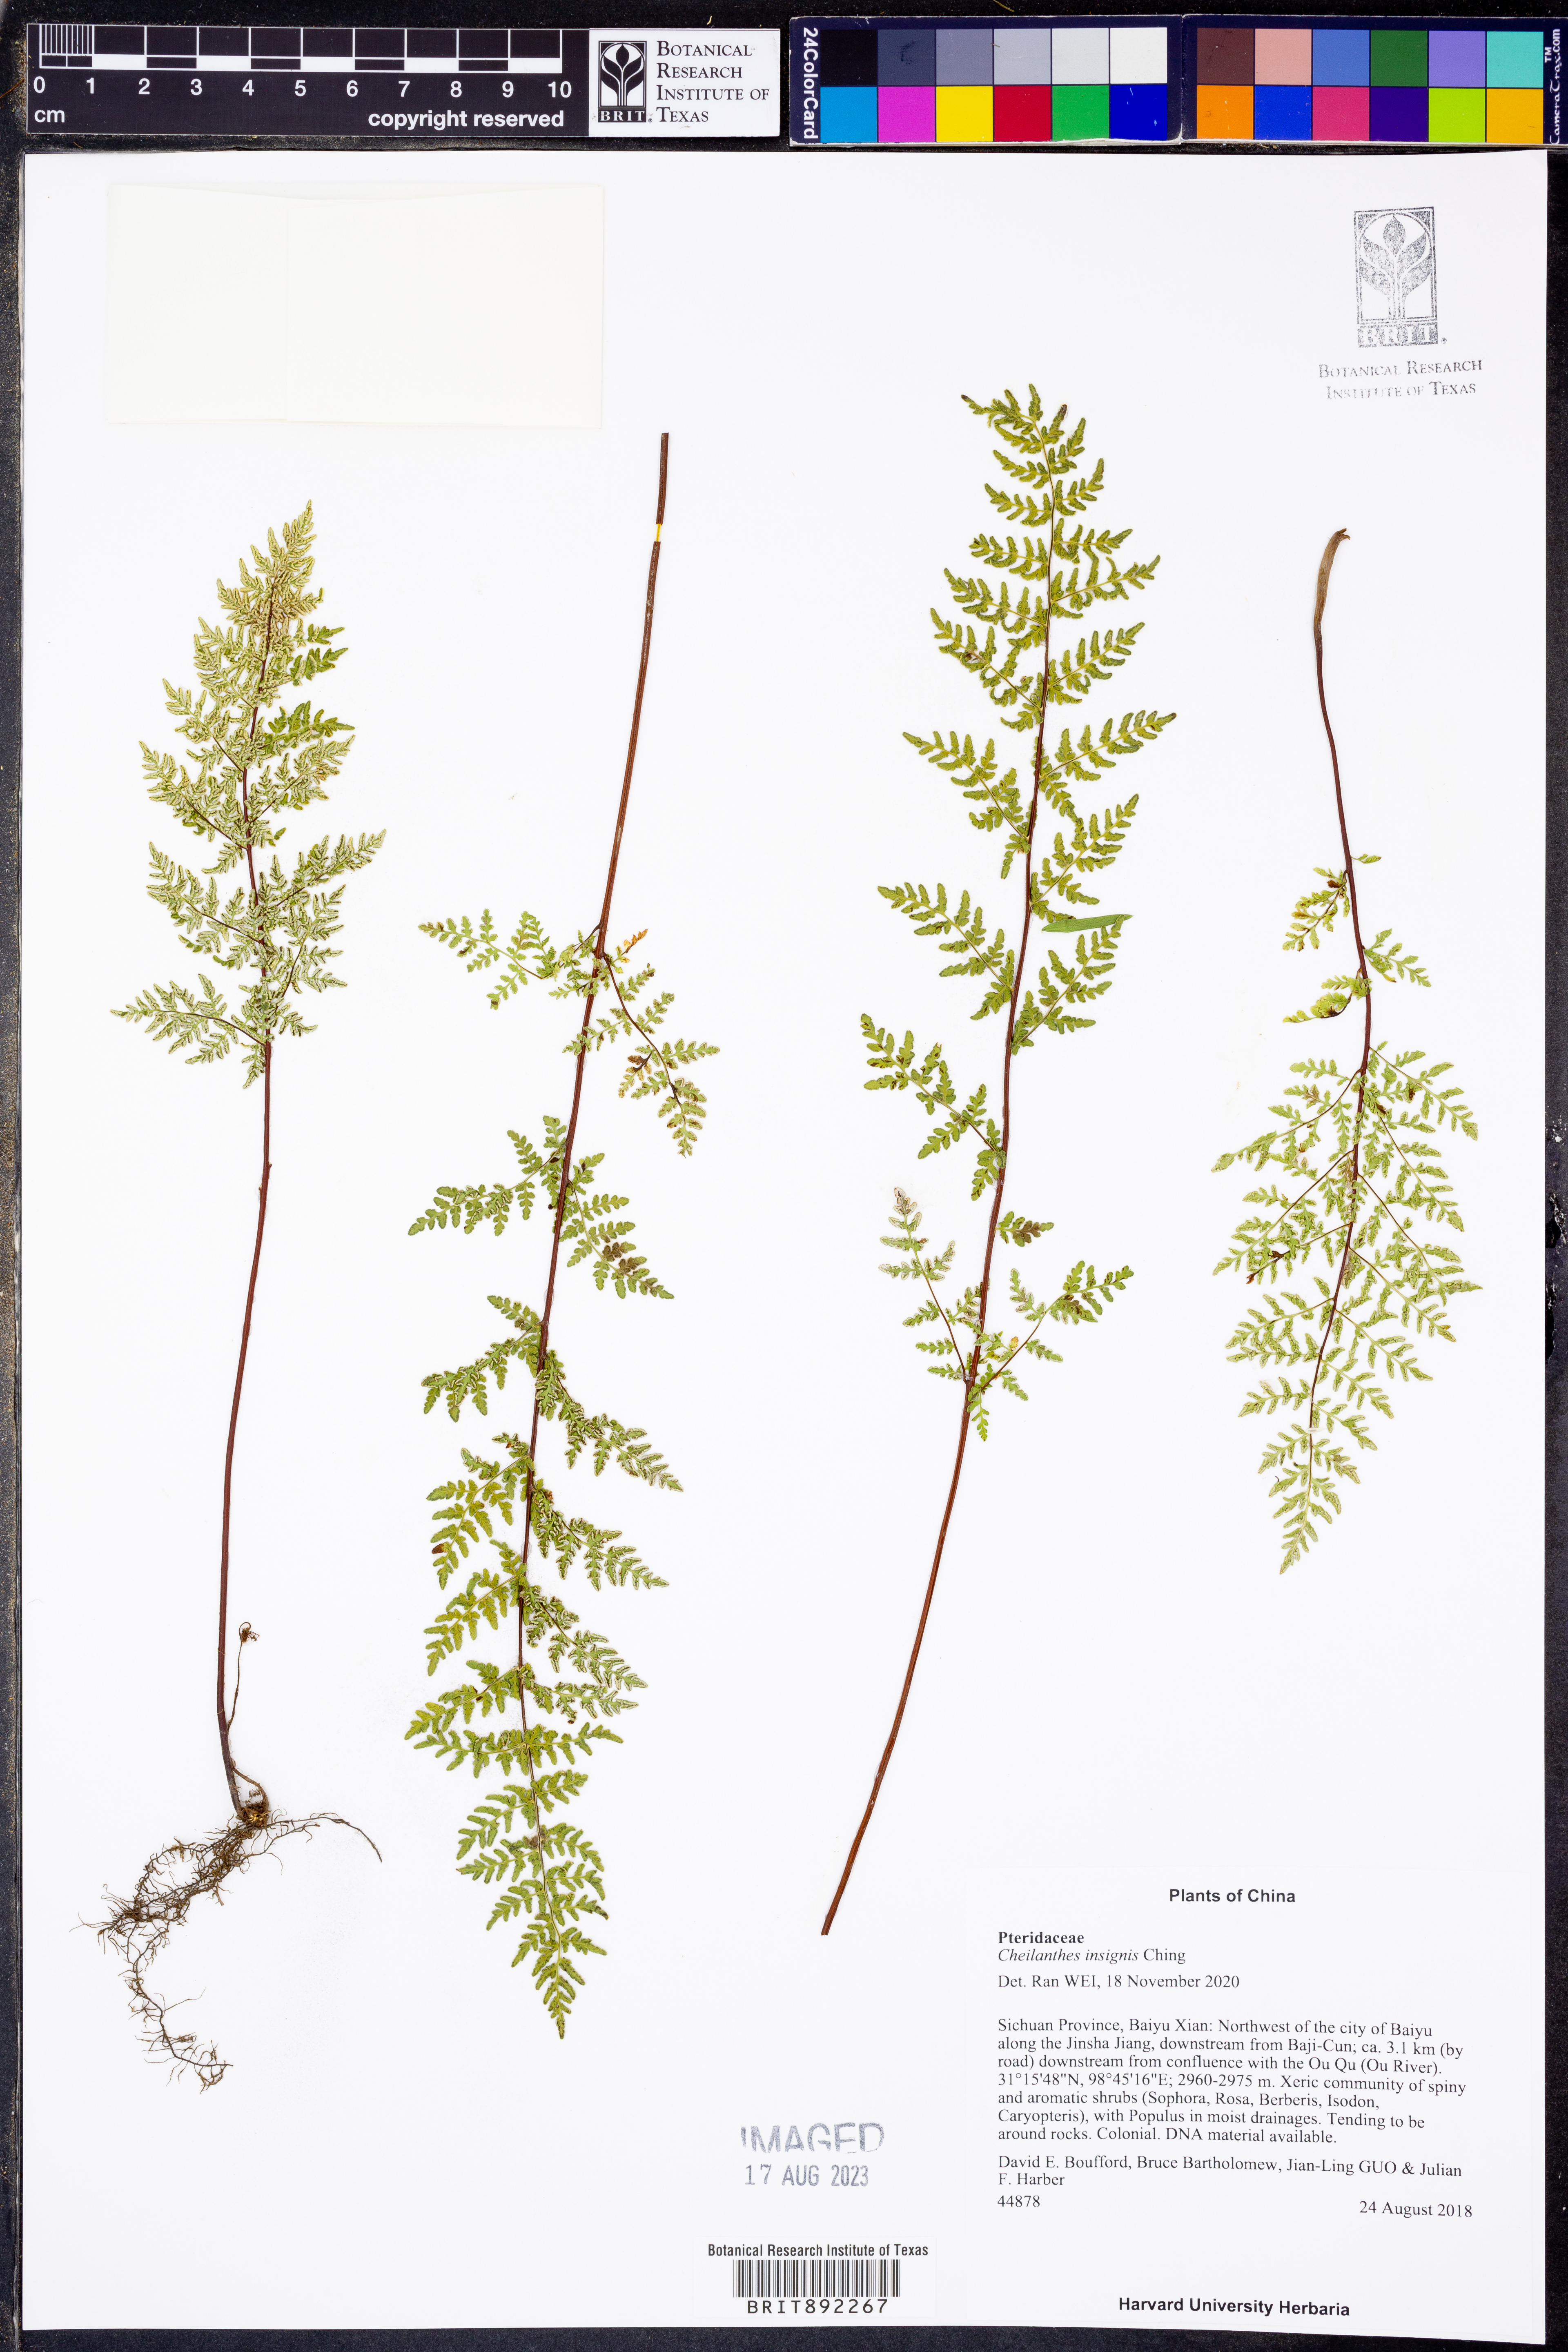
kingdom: Plantae
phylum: Tracheophyta
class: Polypodiopsida
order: Polypodiales
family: Pteridaceae
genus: Oeosporangium
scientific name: Oeosporangium insigne
